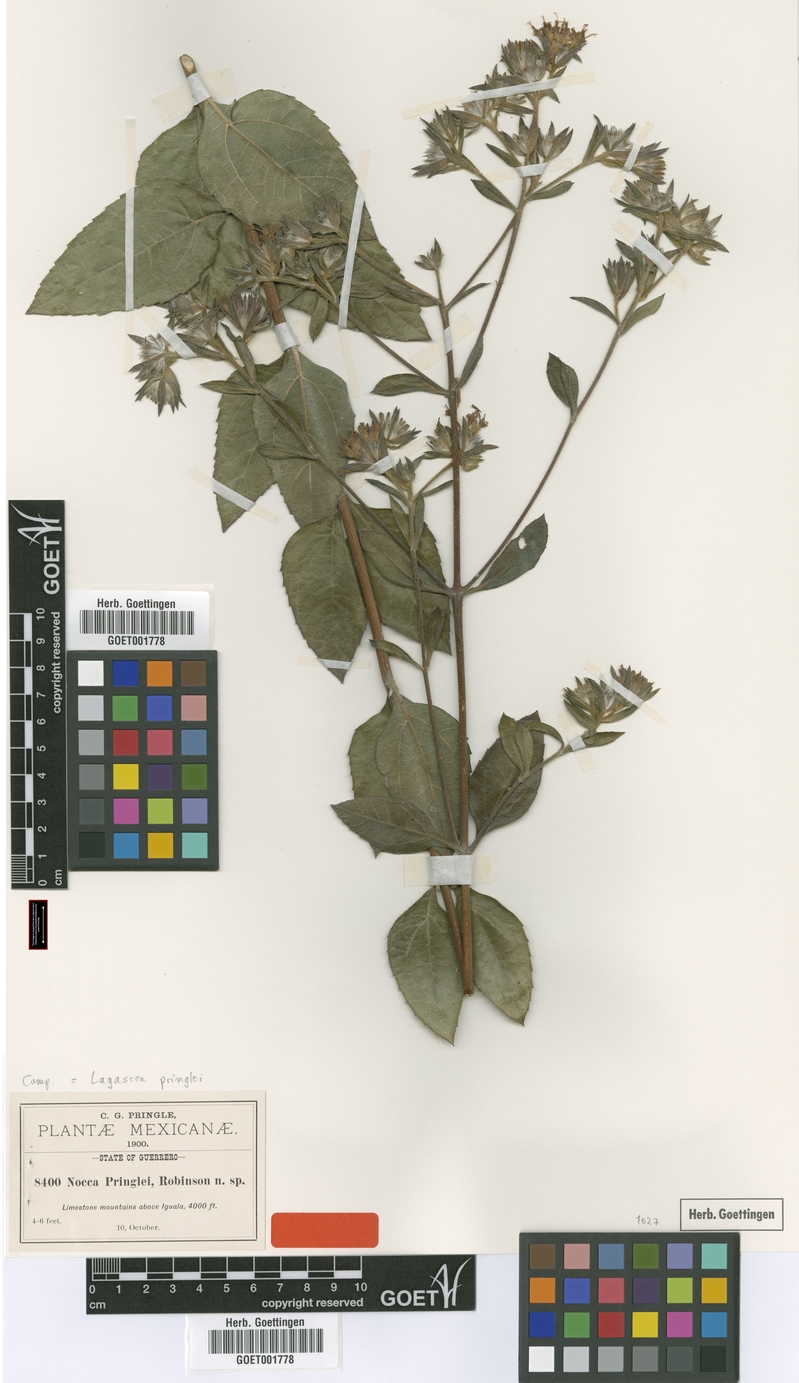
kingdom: Plantae
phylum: Tracheophyta
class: Magnoliopsida
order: Asterales
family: Asteraceae
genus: Lagascea
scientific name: Lagascea rigida
